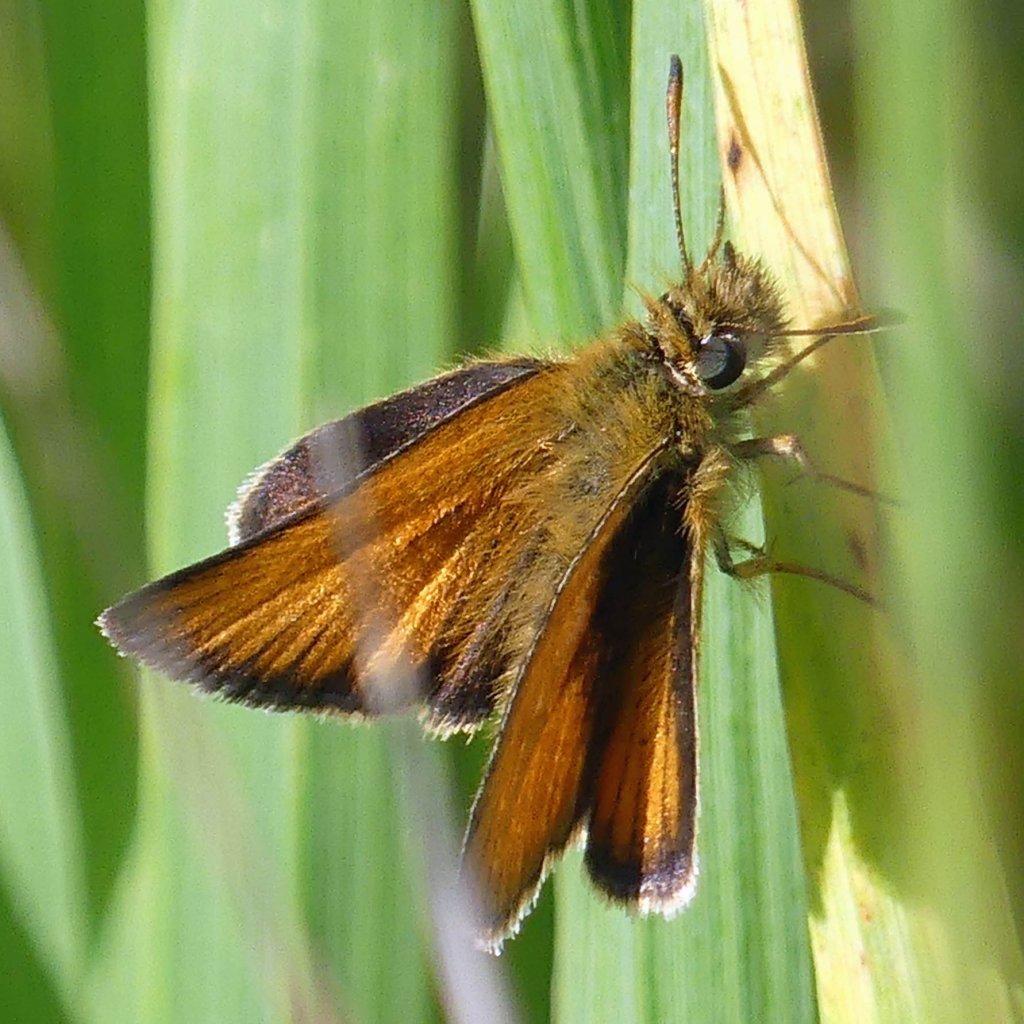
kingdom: Animalia
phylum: Arthropoda
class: Insecta
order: Lepidoptera
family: Hesperiidae
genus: Thymelicus
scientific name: Thymelicus lineola
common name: European Skipper
